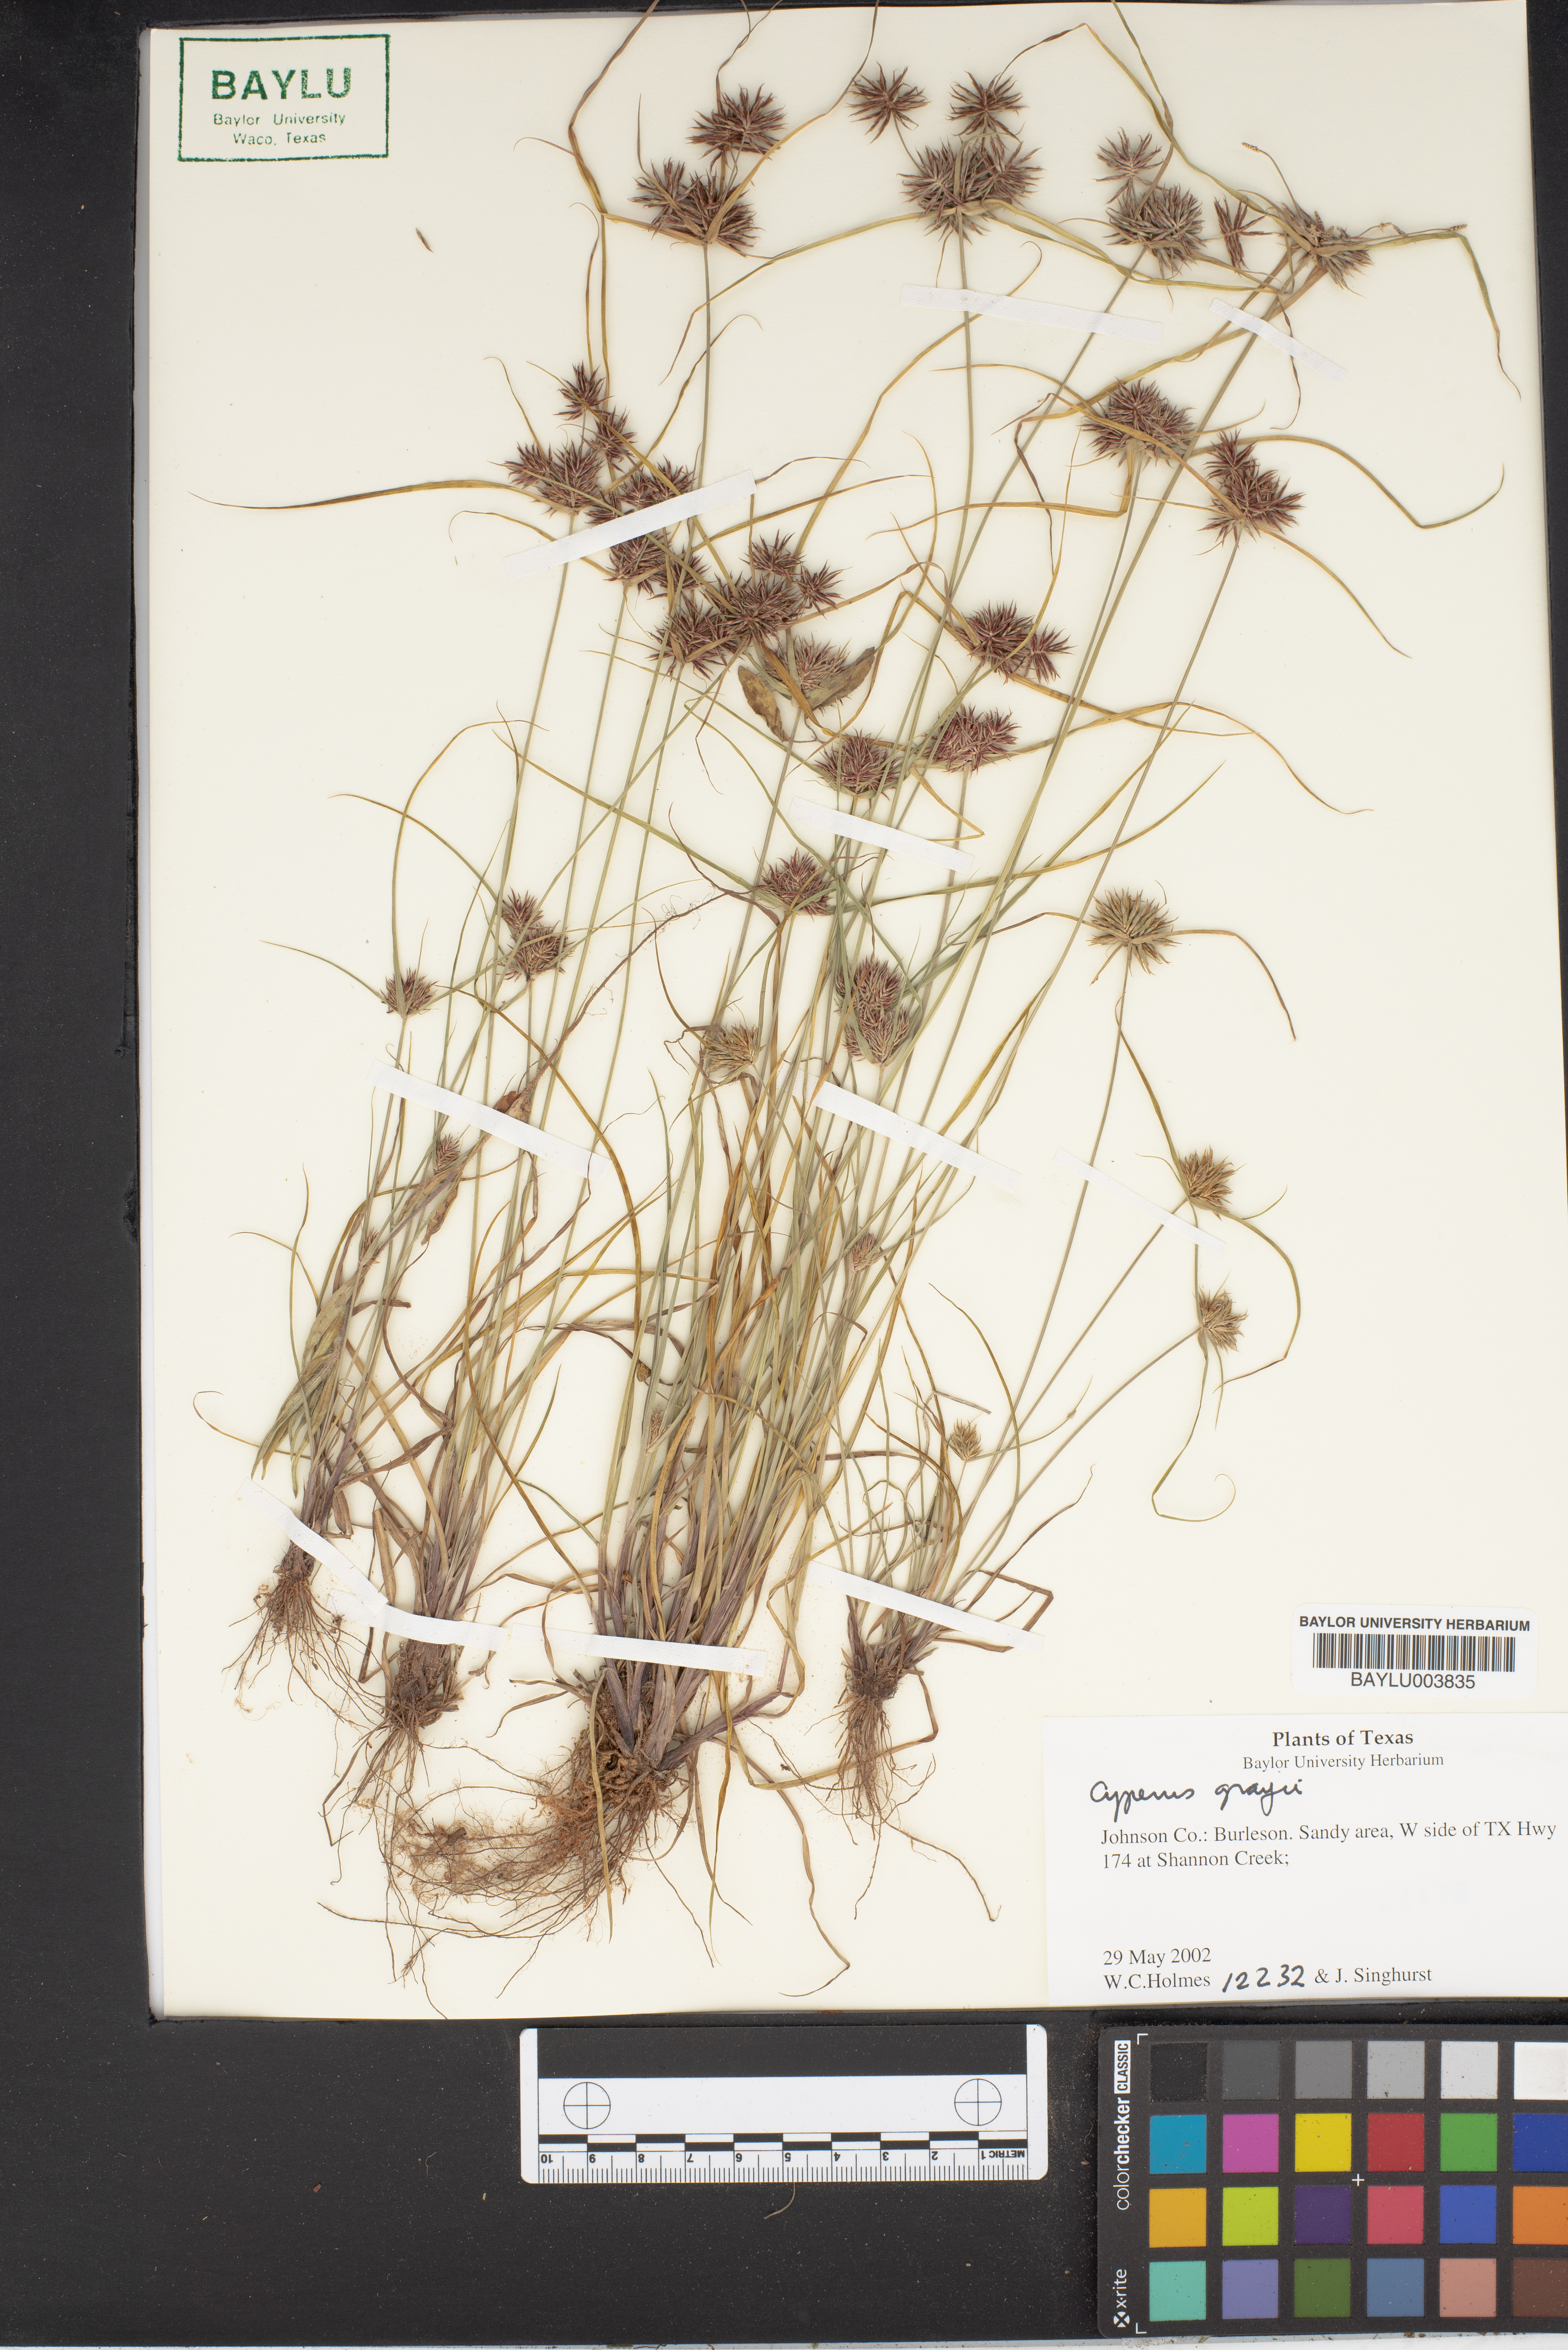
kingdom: Plantae
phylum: Tracheophyta
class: Liliopsida
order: Poales
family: Cyperaceae
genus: Cyperus
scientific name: Cyperus grayi
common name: Gray's flat sedge
